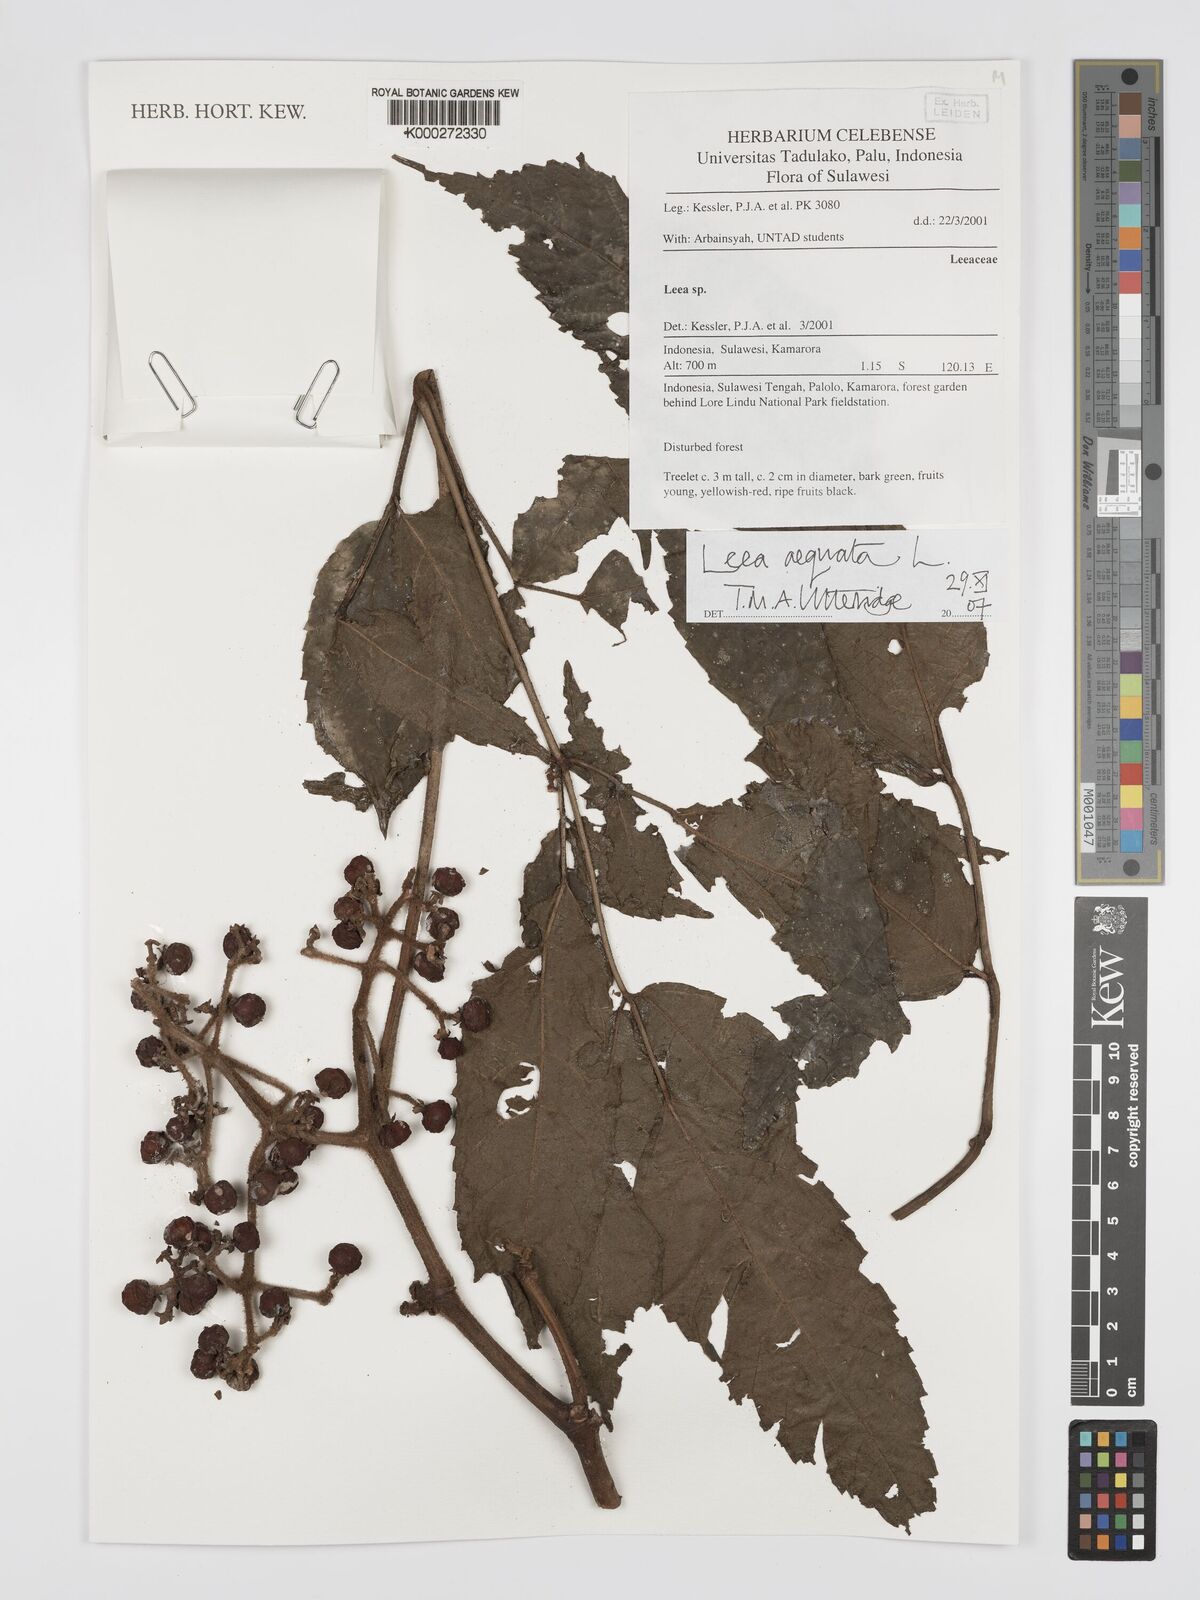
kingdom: Plantae
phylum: Tracheophyta
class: Magnoliopsida
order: Vitales
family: Vitaceae
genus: Leea
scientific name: Leea aequata
